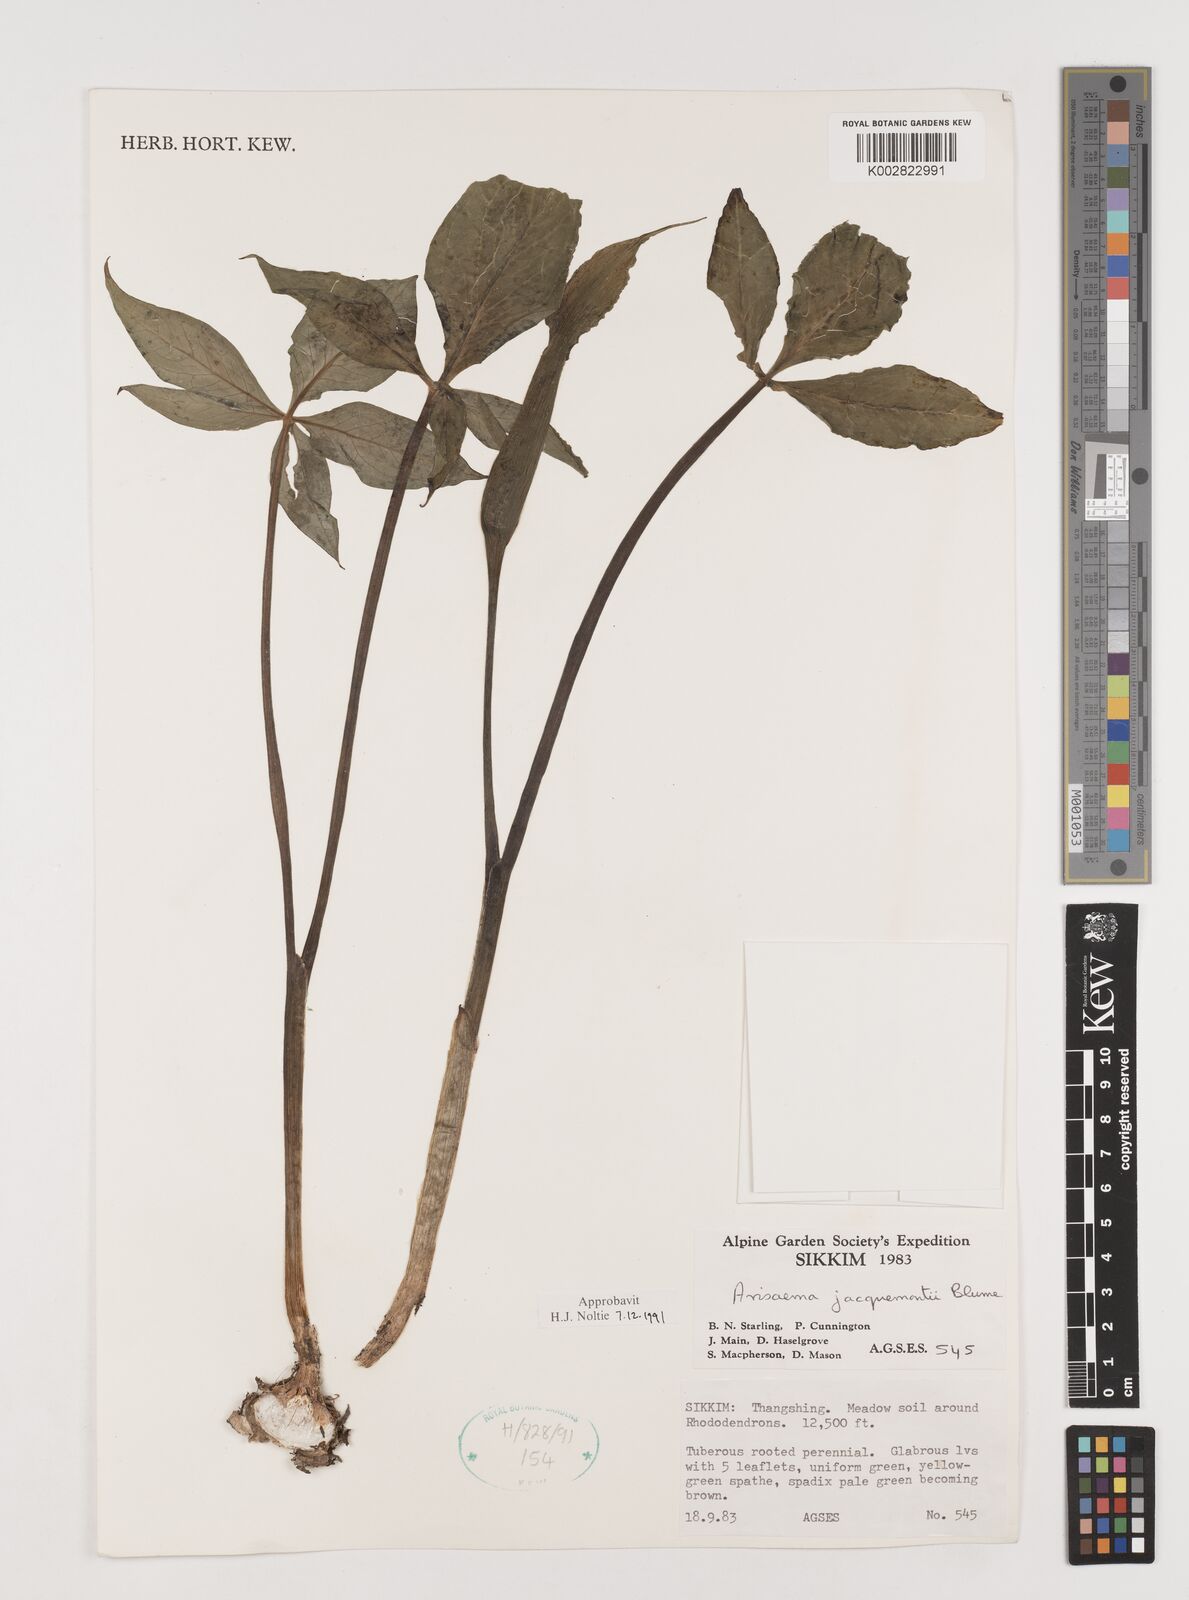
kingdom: Plantae
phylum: Tracheophyta
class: Liliopsida
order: Alismatales
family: Araceae
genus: Arisaema
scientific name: Arisaema jacquemontii
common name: Jacquemont's cobra-lily
